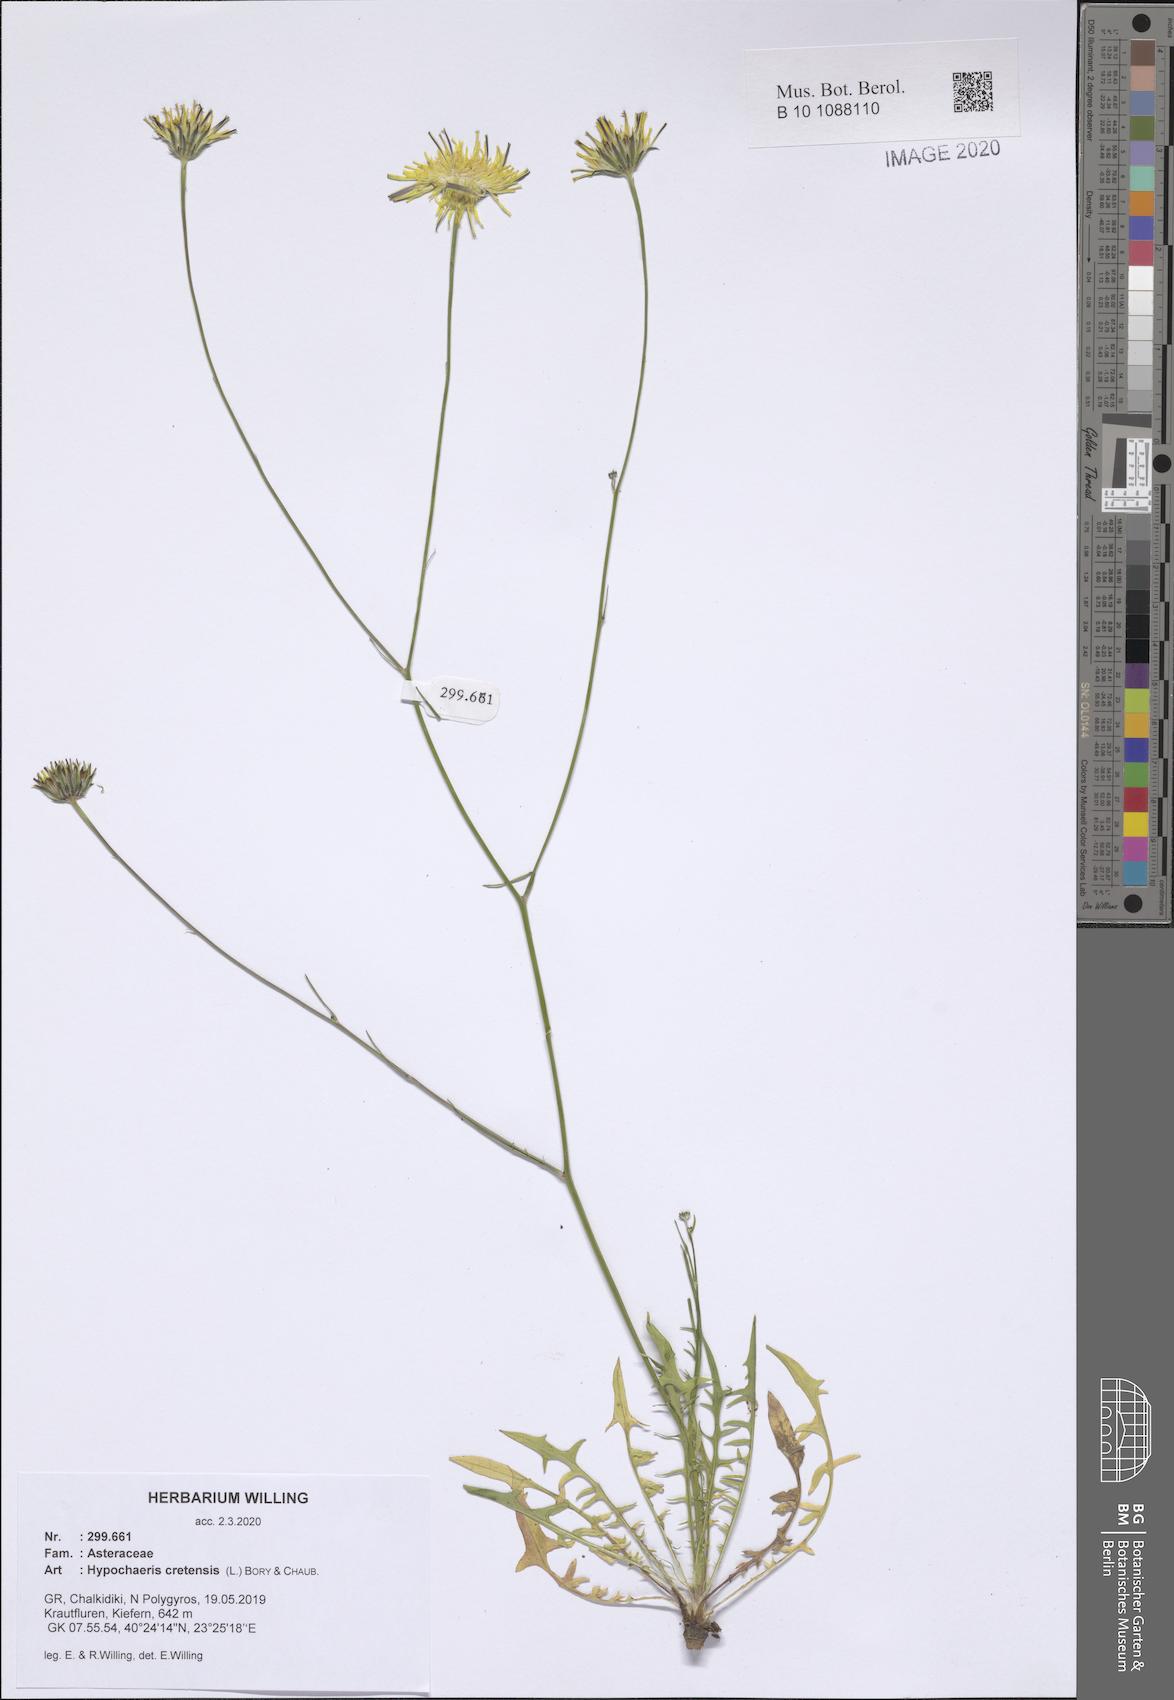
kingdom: Plantae
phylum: Tracheophyta
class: Magnoliopsida
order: Asterales
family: Asteraceae
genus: Hypochaeris
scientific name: Hypochaeris cretensis
